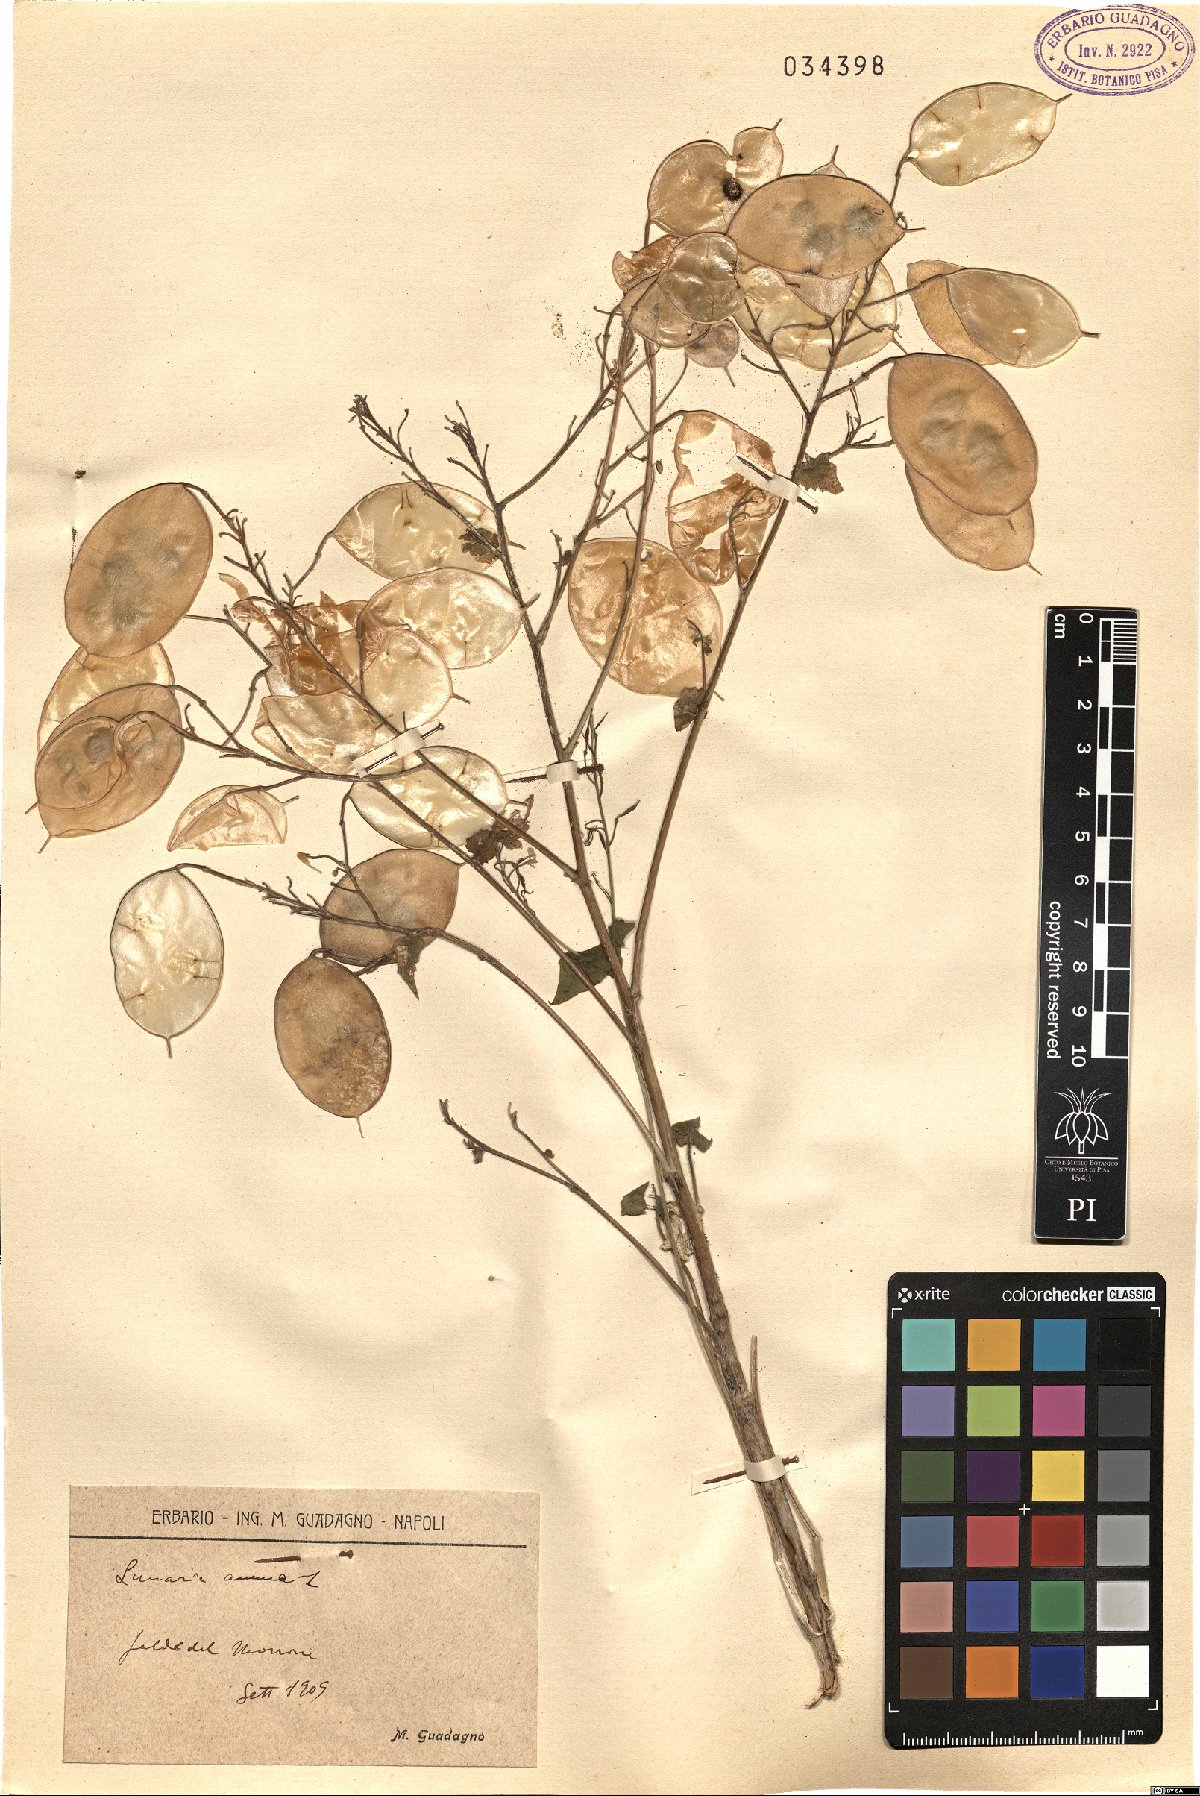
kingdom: Plantae
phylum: Tracheophyta
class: Magnoliopsida
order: Brassicales
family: Brassicaceae
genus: Lunaria
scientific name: Lunaria annua
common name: Honesty
